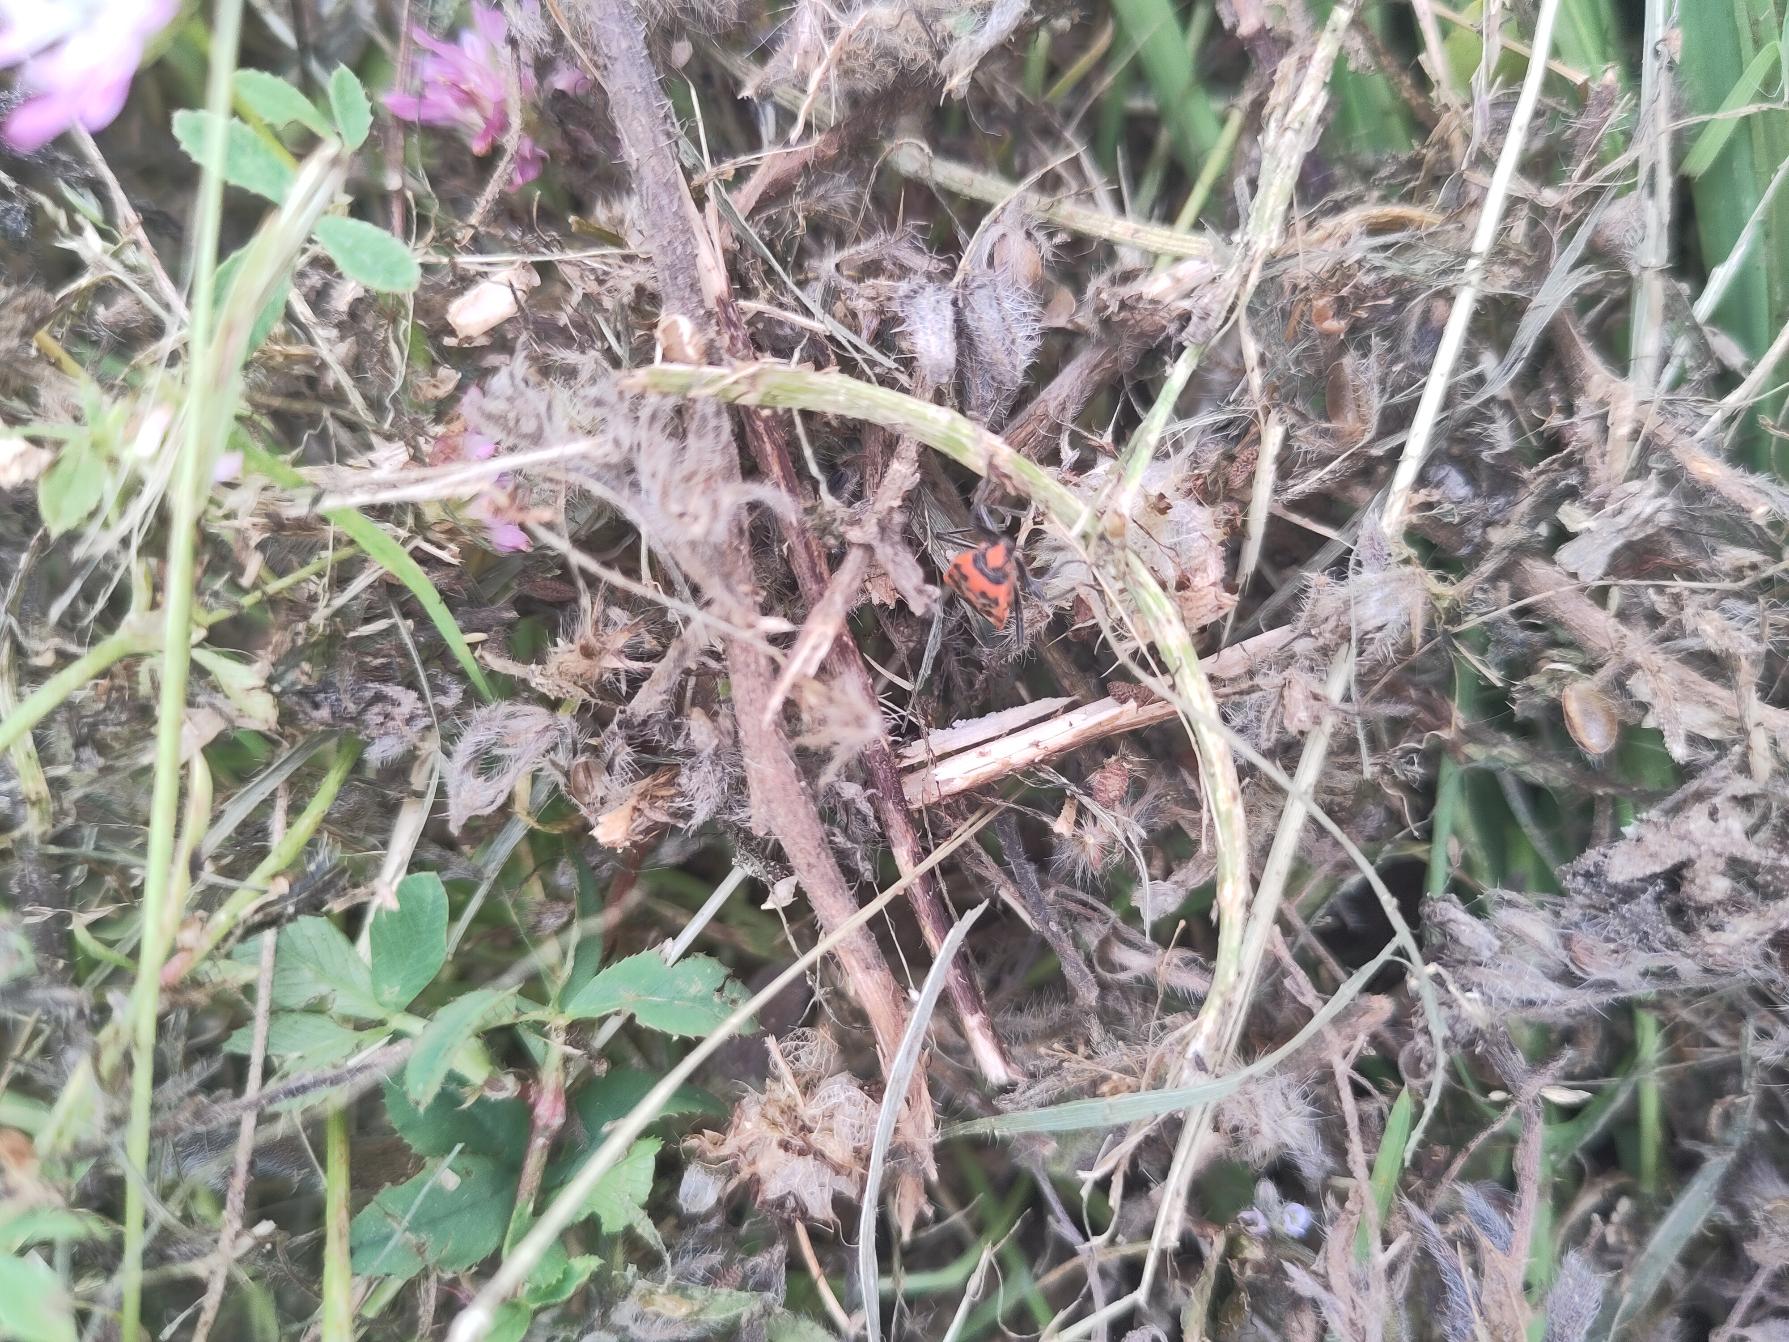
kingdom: Animalia
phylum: Arthropoda
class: Insecta
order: Hemiptera
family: Rhopalidae
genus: Corizus
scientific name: Corizus hyoscyami
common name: Rød kanttæge
